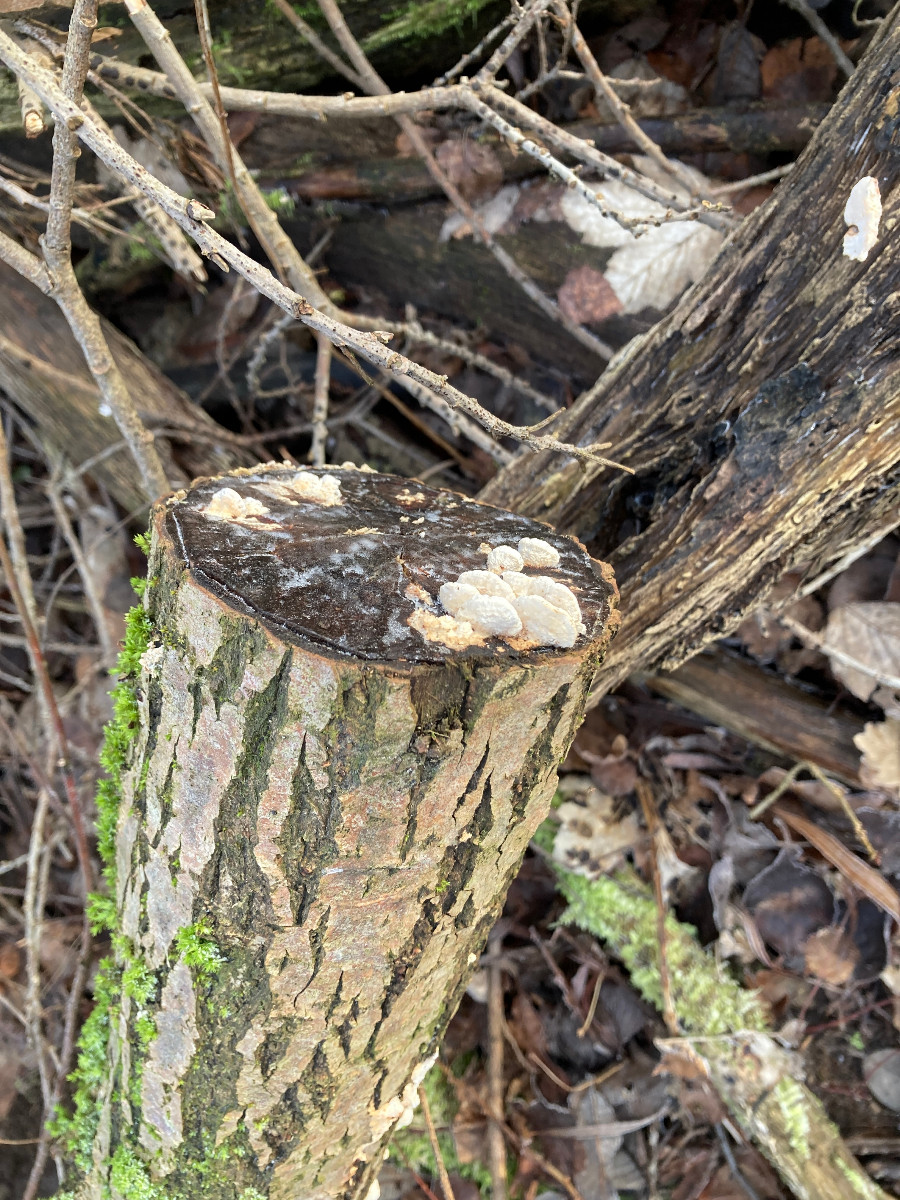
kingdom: Fungi
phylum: Basidiomycota
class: Agaricomycetes
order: Polyporales
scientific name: Polyporales
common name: poresvampordenen
